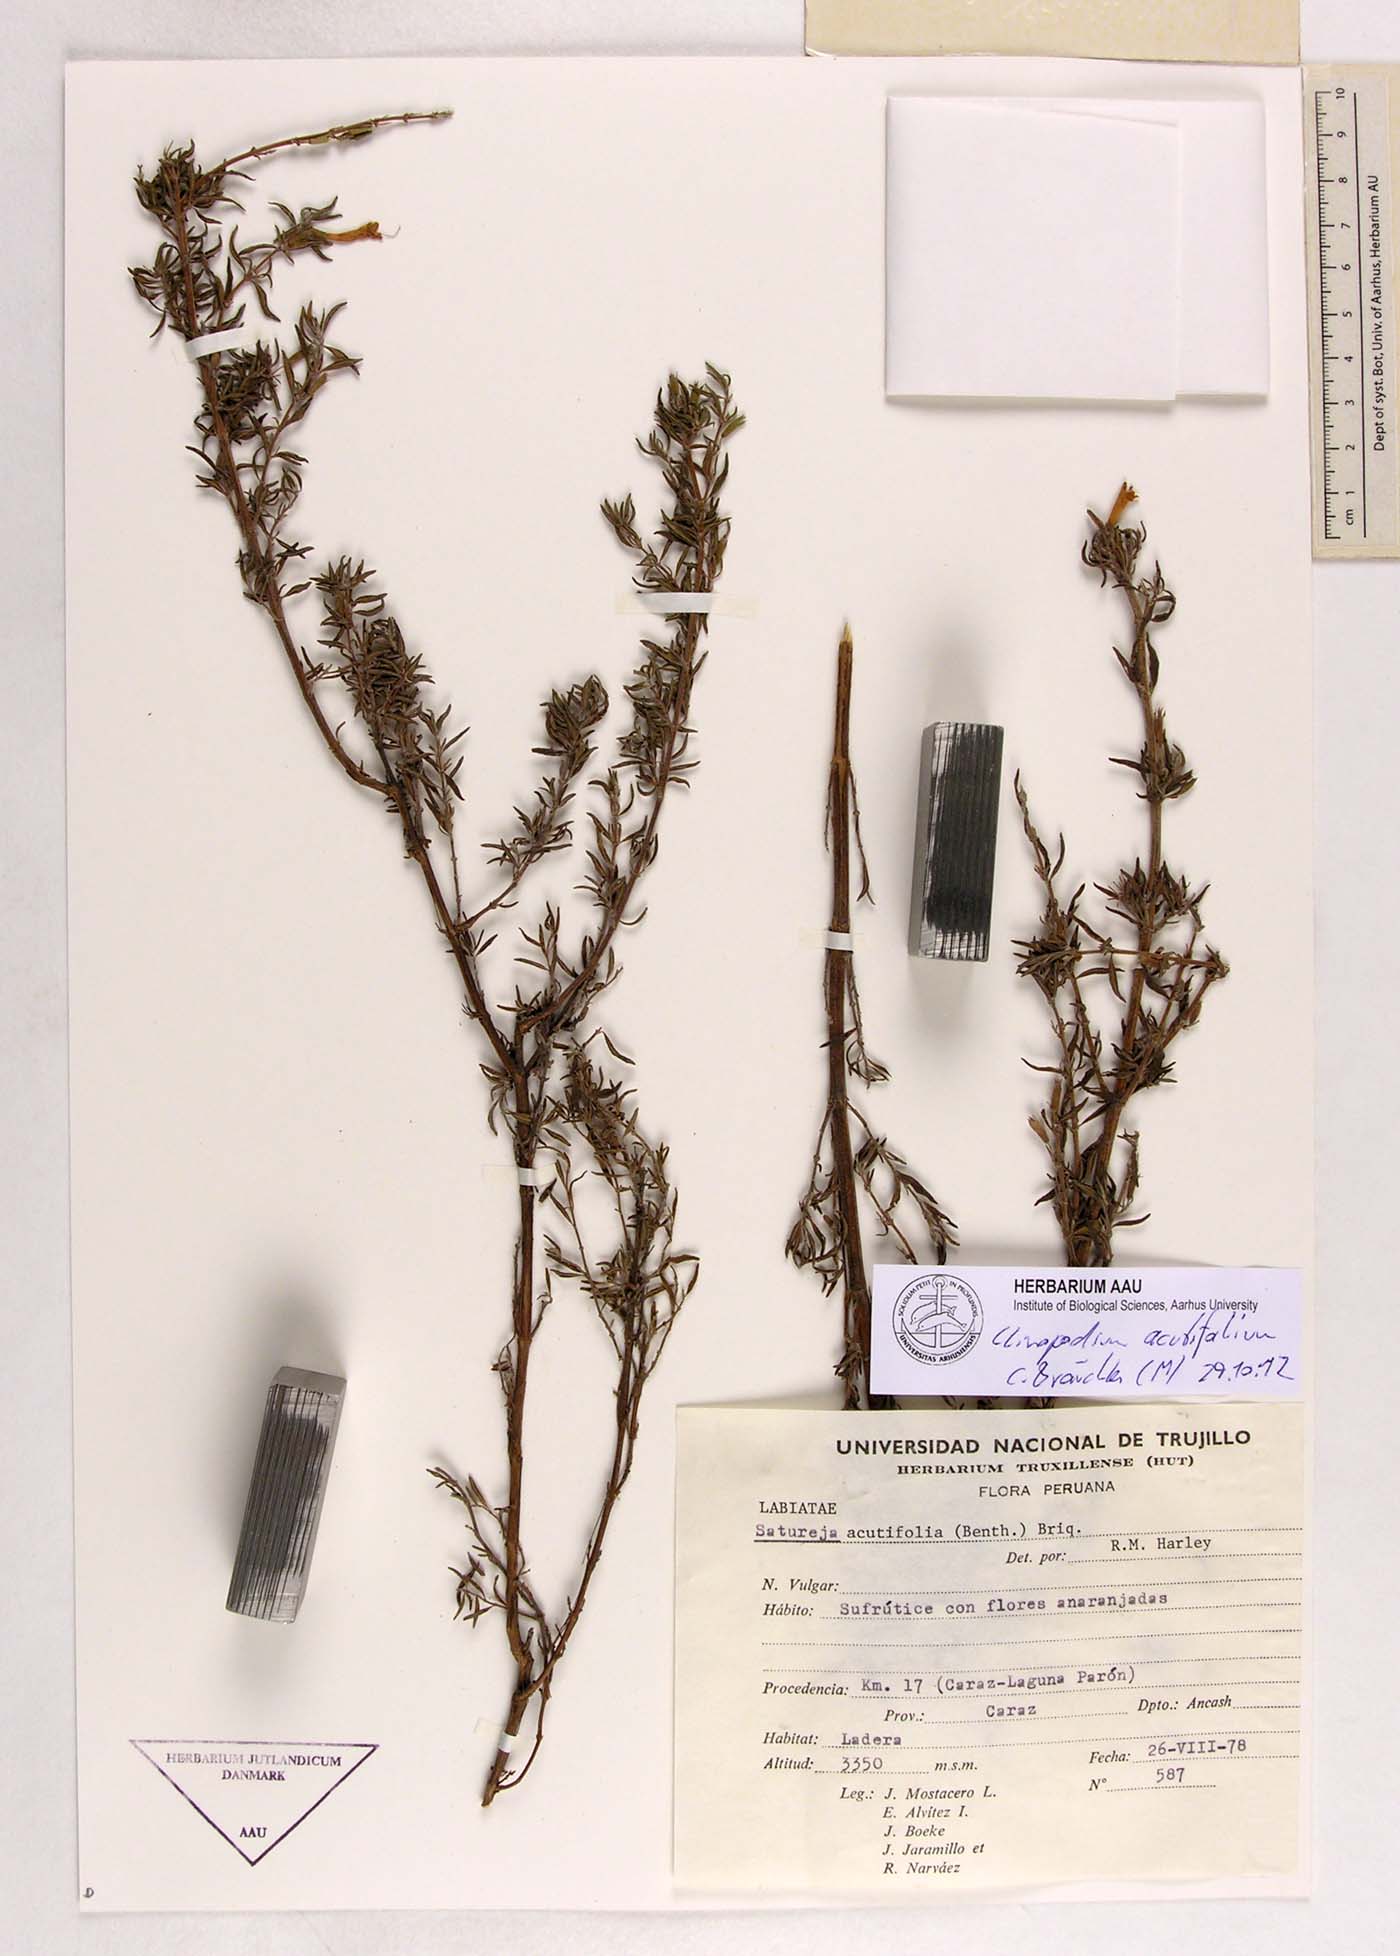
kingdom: Plantae
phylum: Tracheophyta
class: Magnoliopsida
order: Lamiales
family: Lamiaceae
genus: Clinopodium
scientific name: Clinopodium acutifolium
